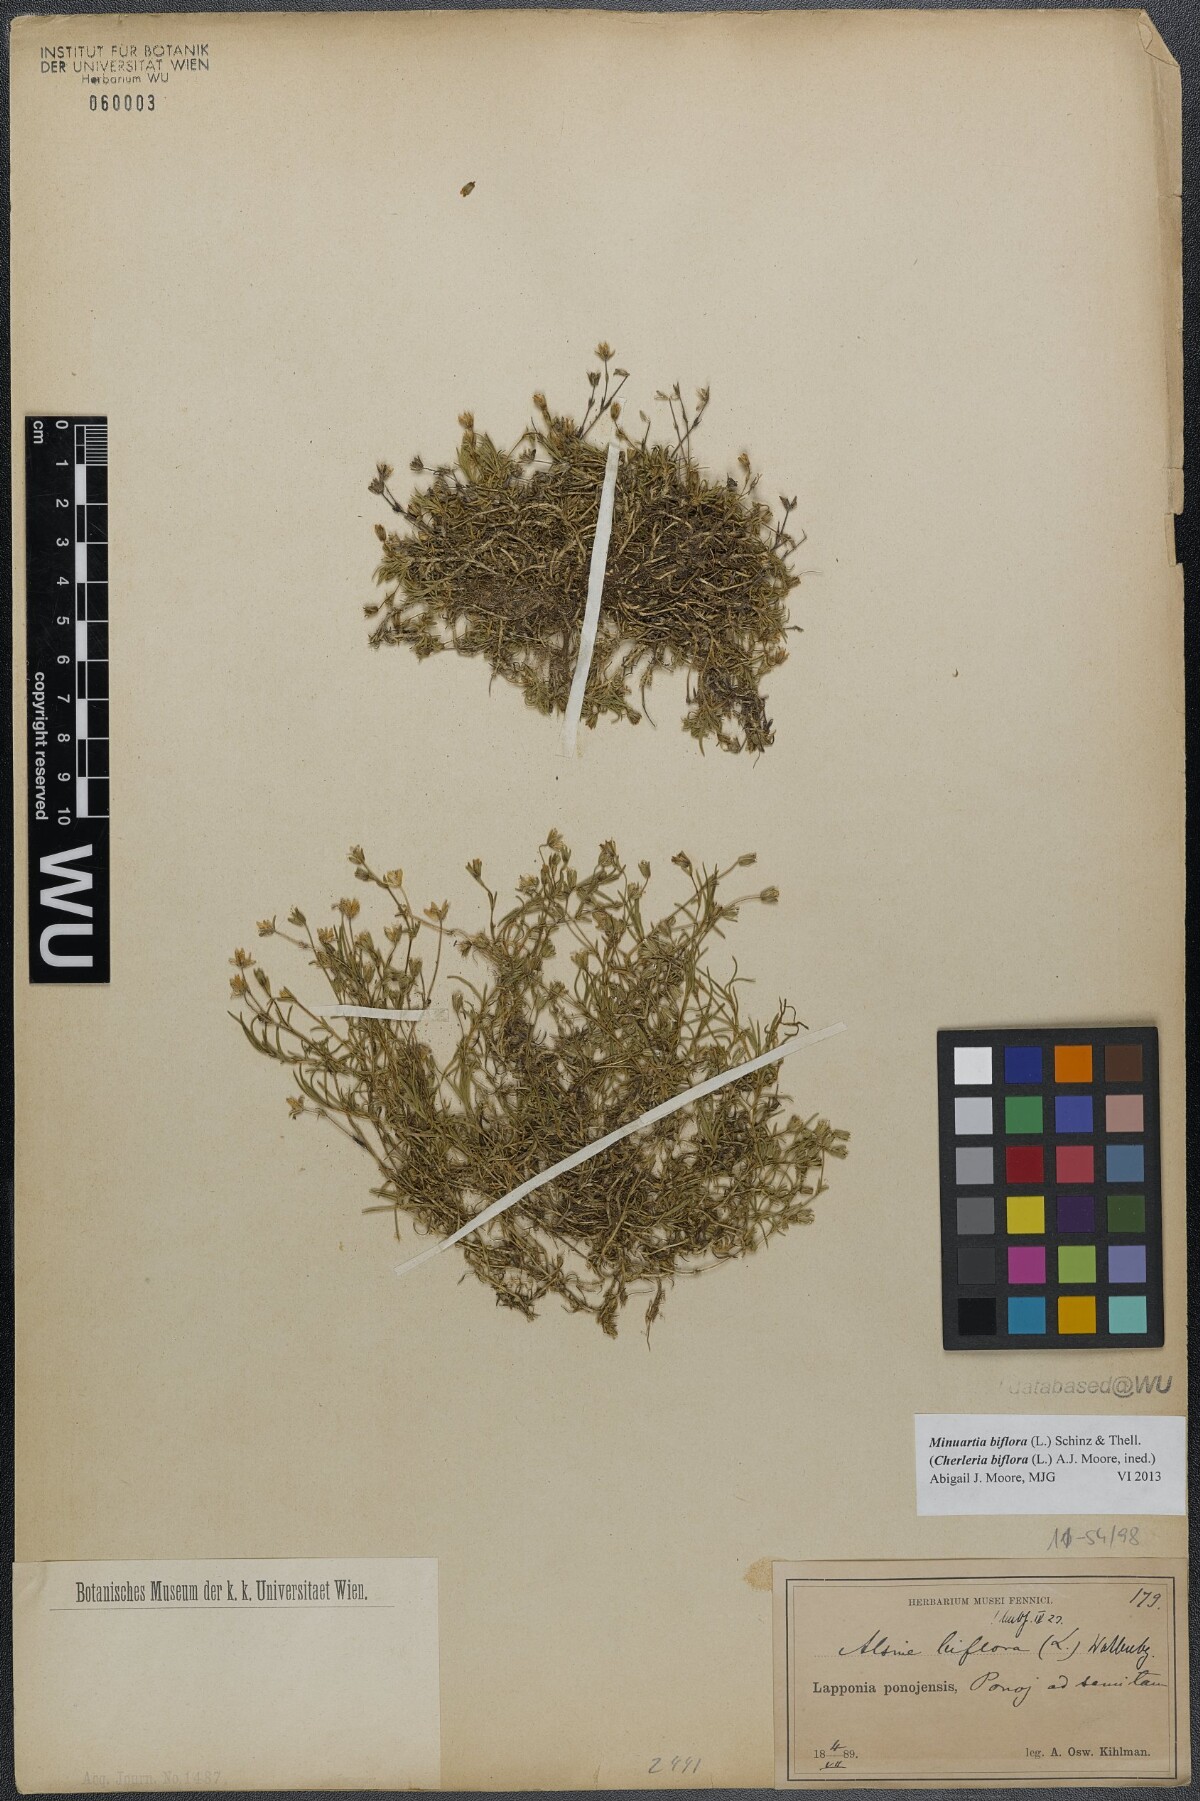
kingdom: Plantae
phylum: Tracheophyta
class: Magnoliopsida
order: Caryophyllales
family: Caryophyllaceae
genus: Cherleria
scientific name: Cherleria biflora
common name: Mountain sandwort
